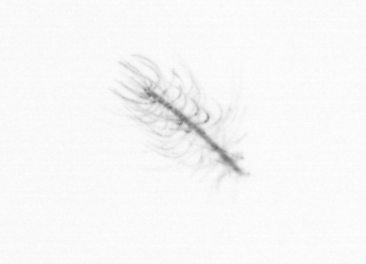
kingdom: Chromista
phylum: Ochrophyta
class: Bacillariophyceae
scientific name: Bacillariophyceae
